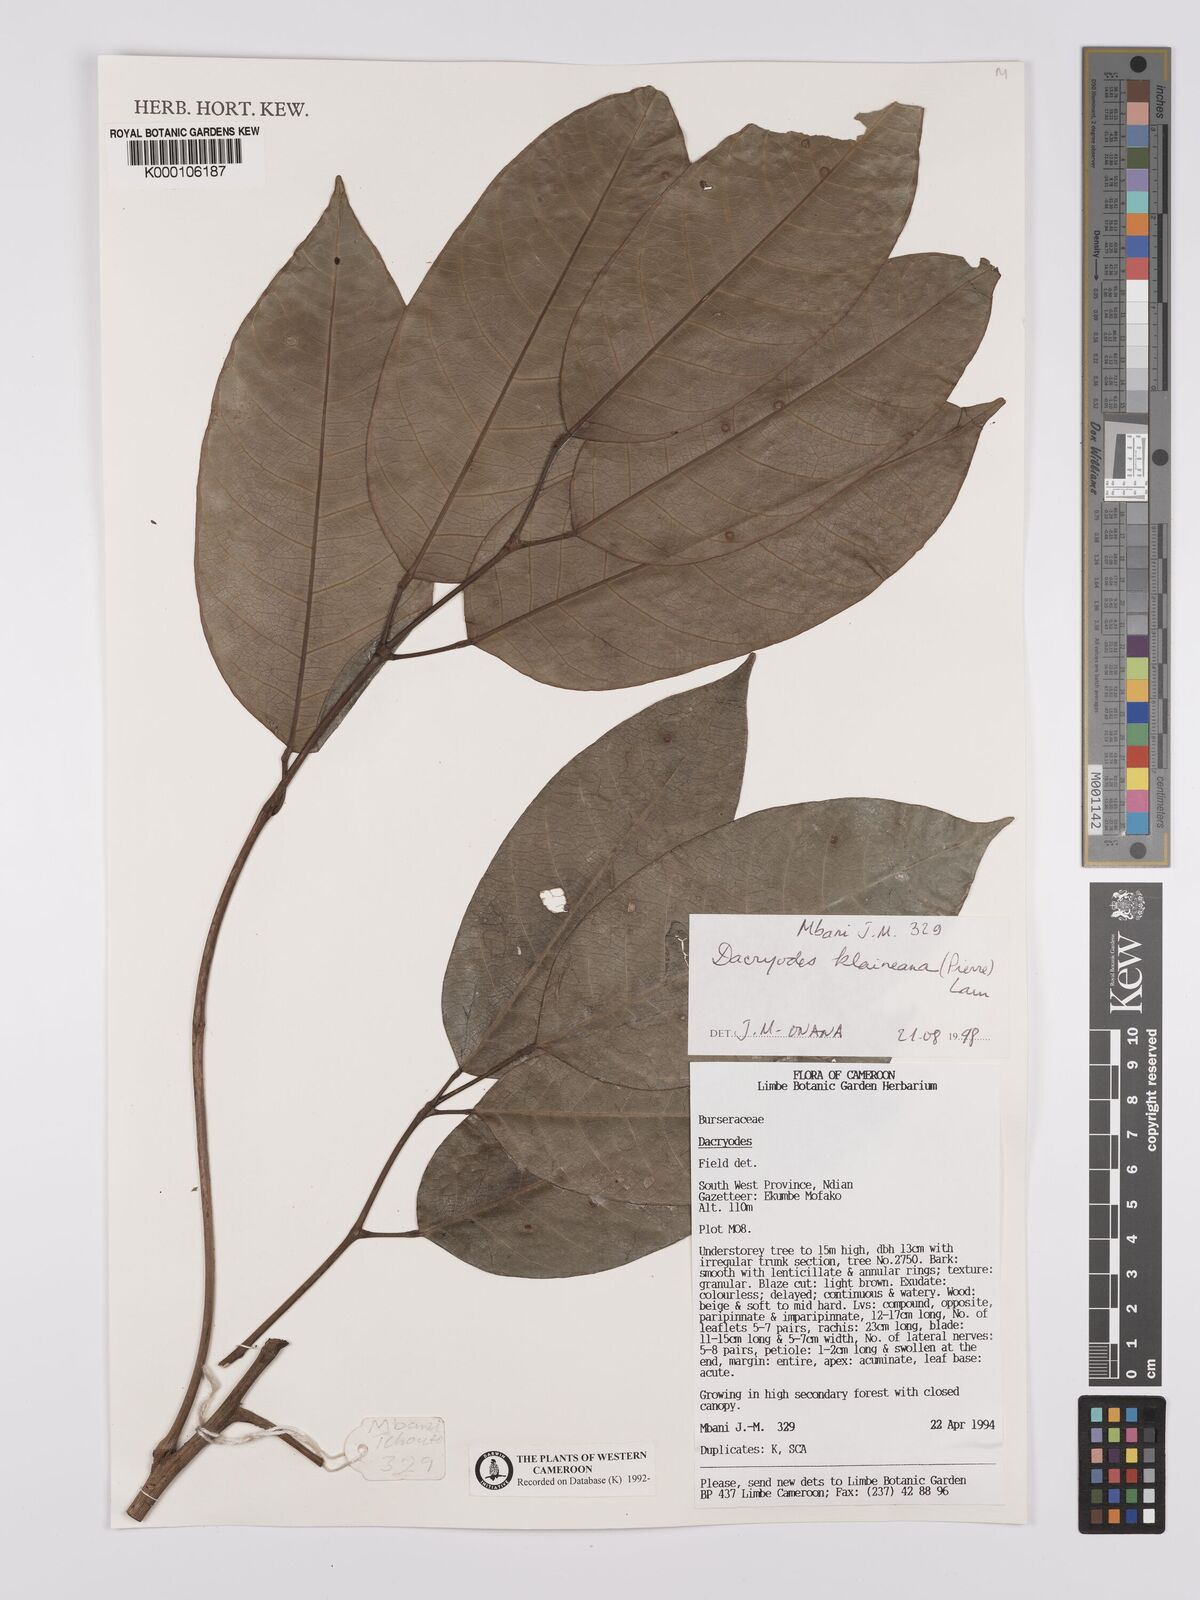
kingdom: Plantae
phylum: Tracheophyta
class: Magnoliopsida
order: Sapindales
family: Burseraceae
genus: Pachylobus
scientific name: Pachylobus klaineana
